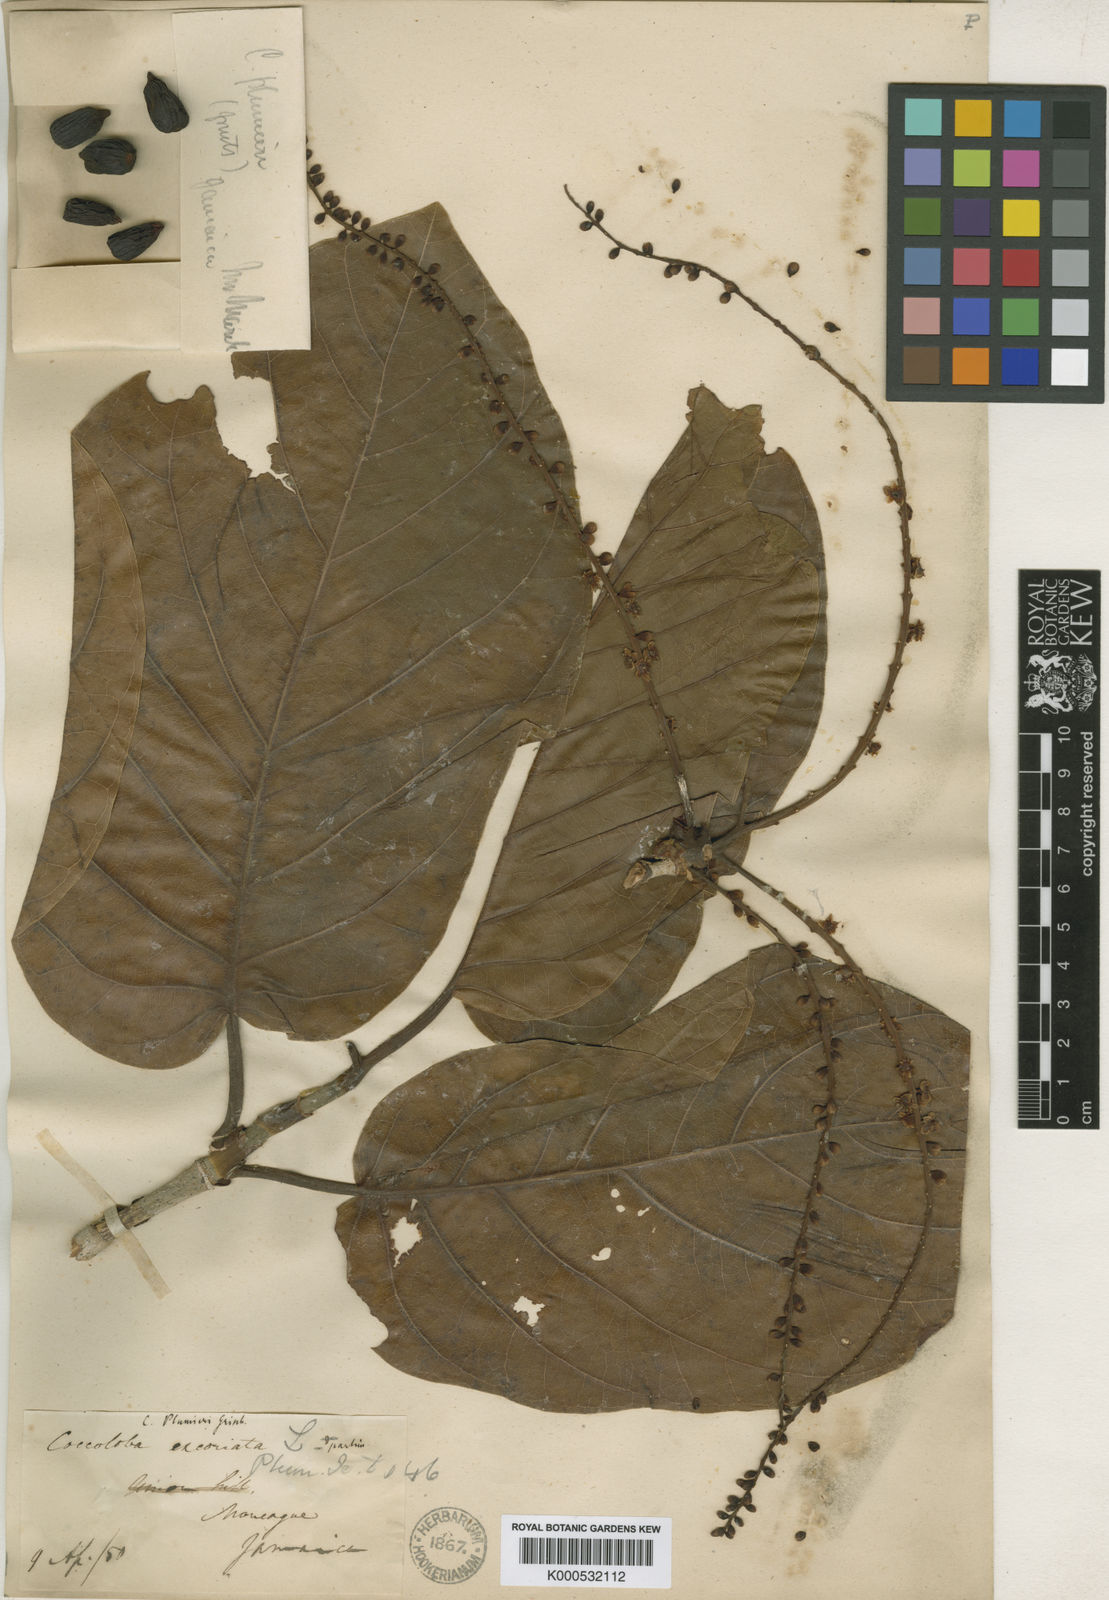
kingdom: Plantae
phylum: Tracheophyta
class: Magnoliopsida
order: Caryophyllales
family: Polygonaceae
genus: Coccoloba
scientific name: Coccoloba plumieri
